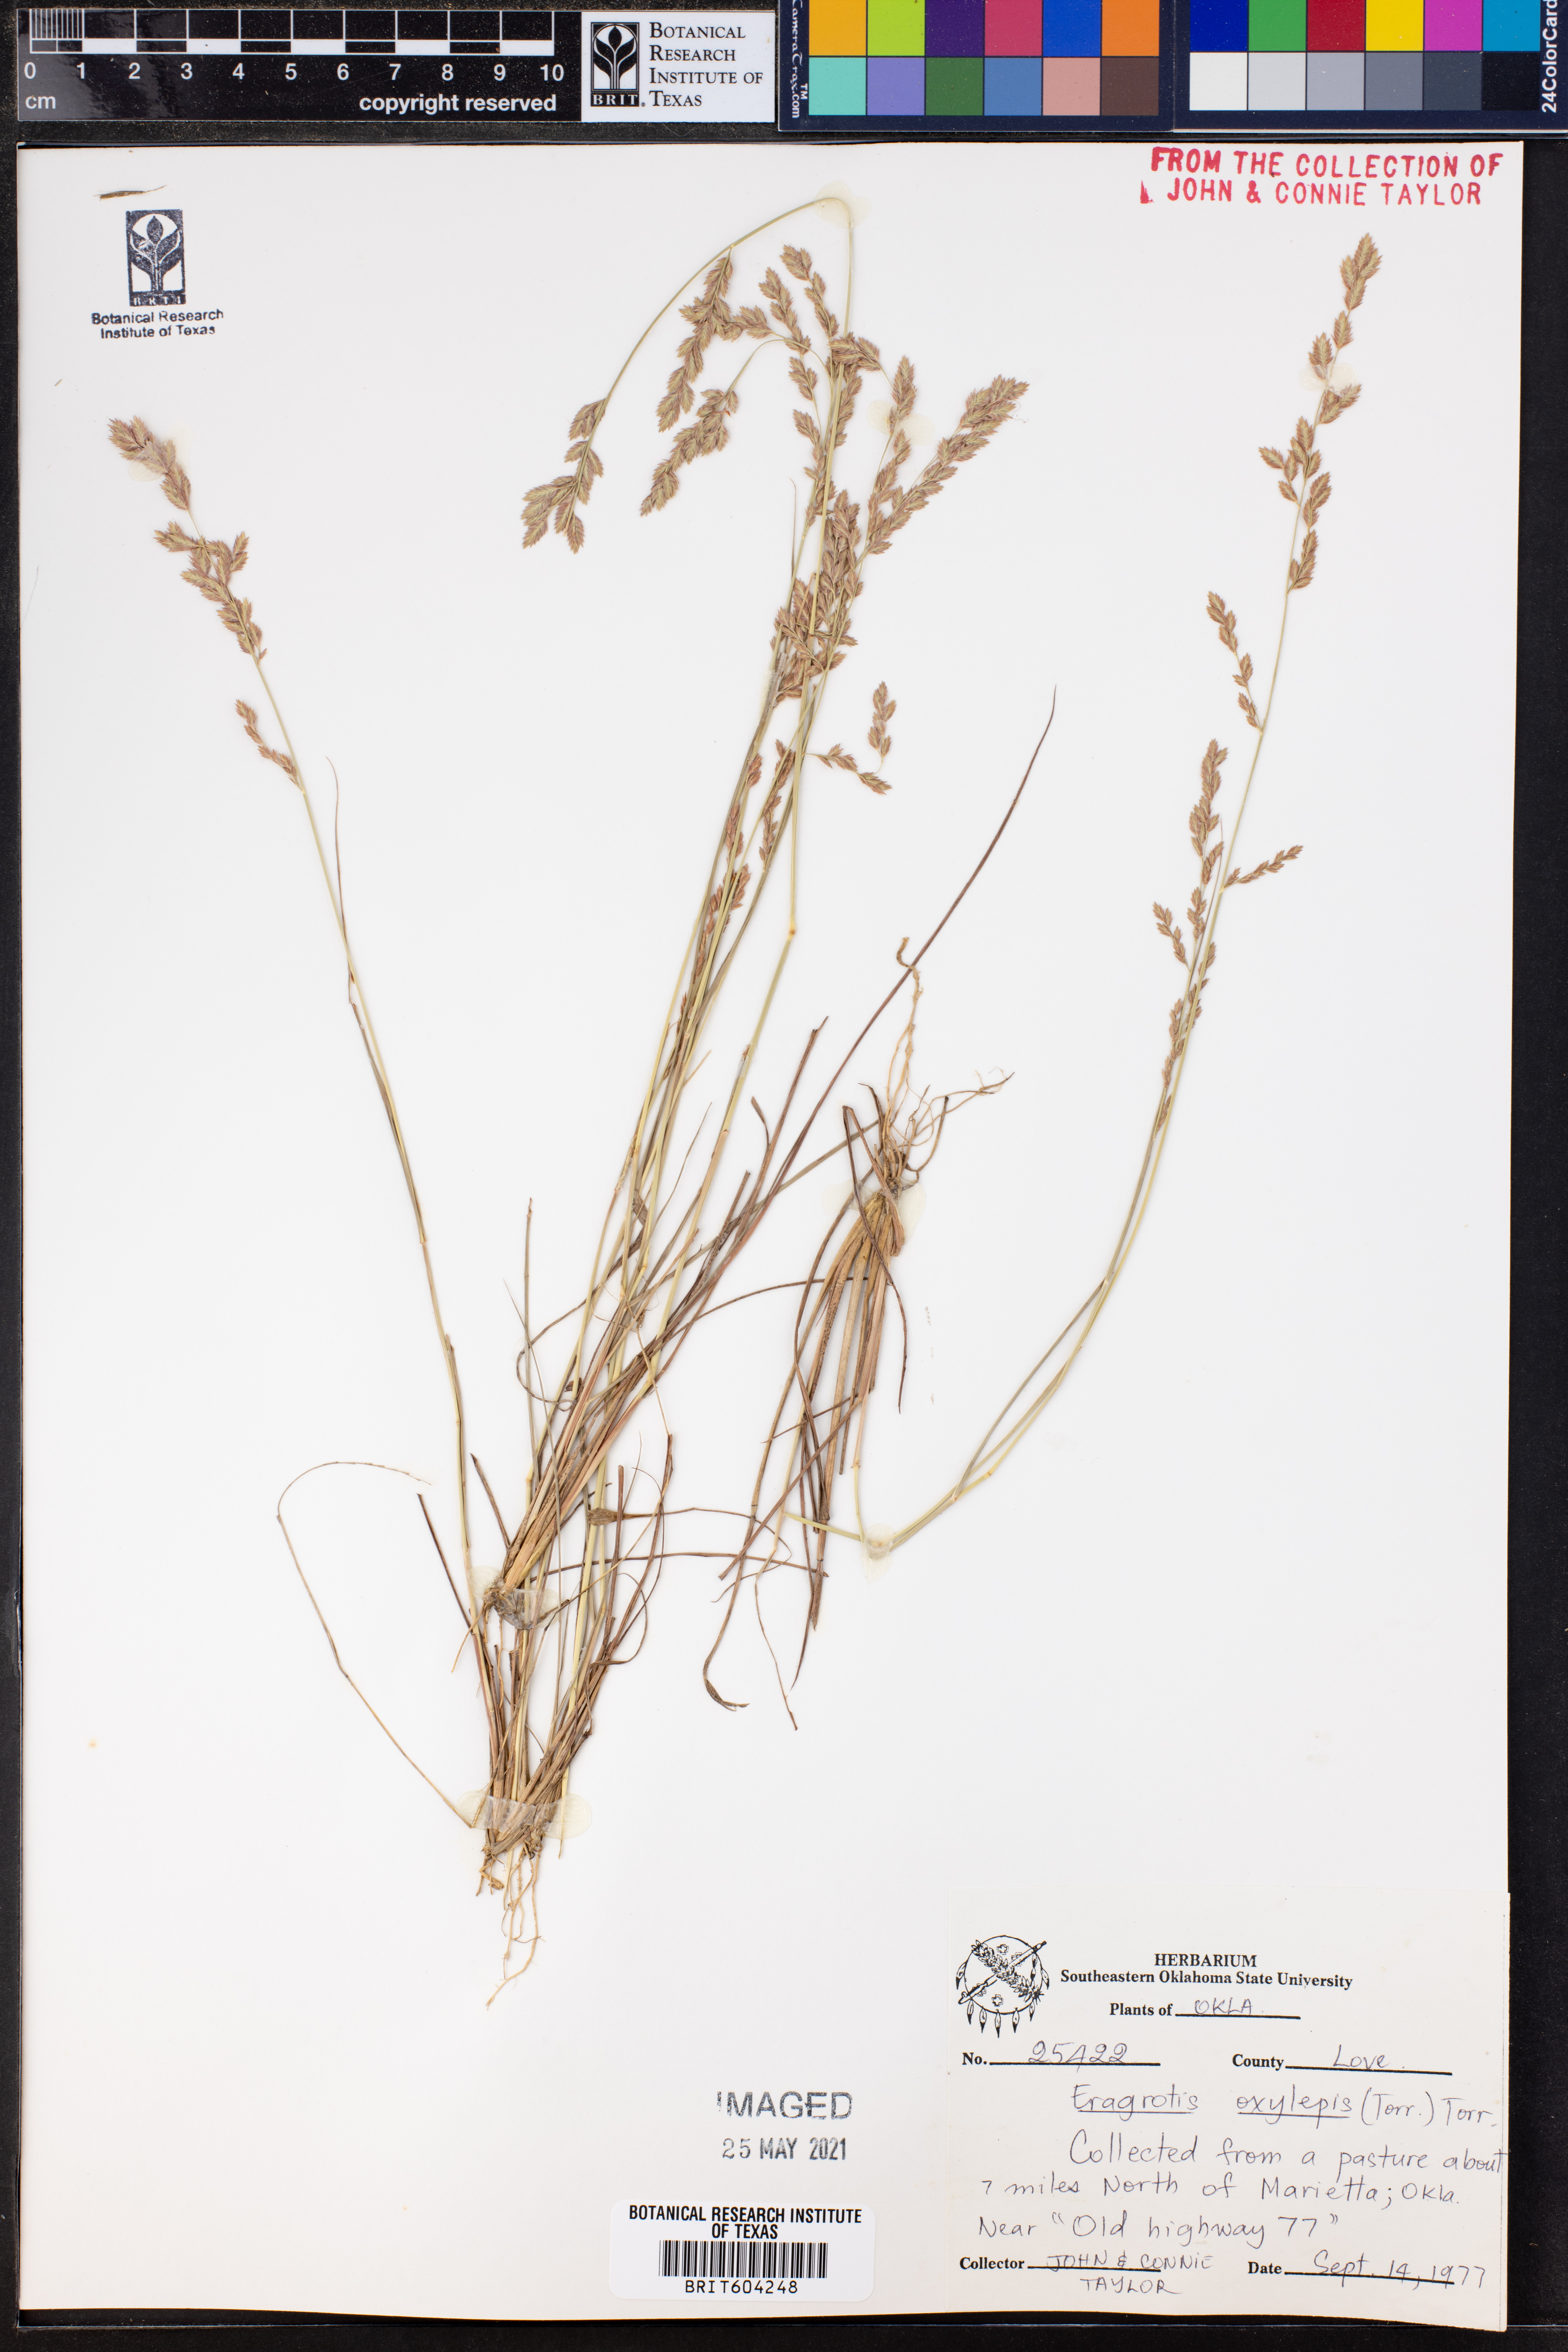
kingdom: Plantae
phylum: Tracheophyta
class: Liliopsida
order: Poales
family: Poaceae
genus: Eragrostis
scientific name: Eragrostis secundiflora
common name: Red love grass
